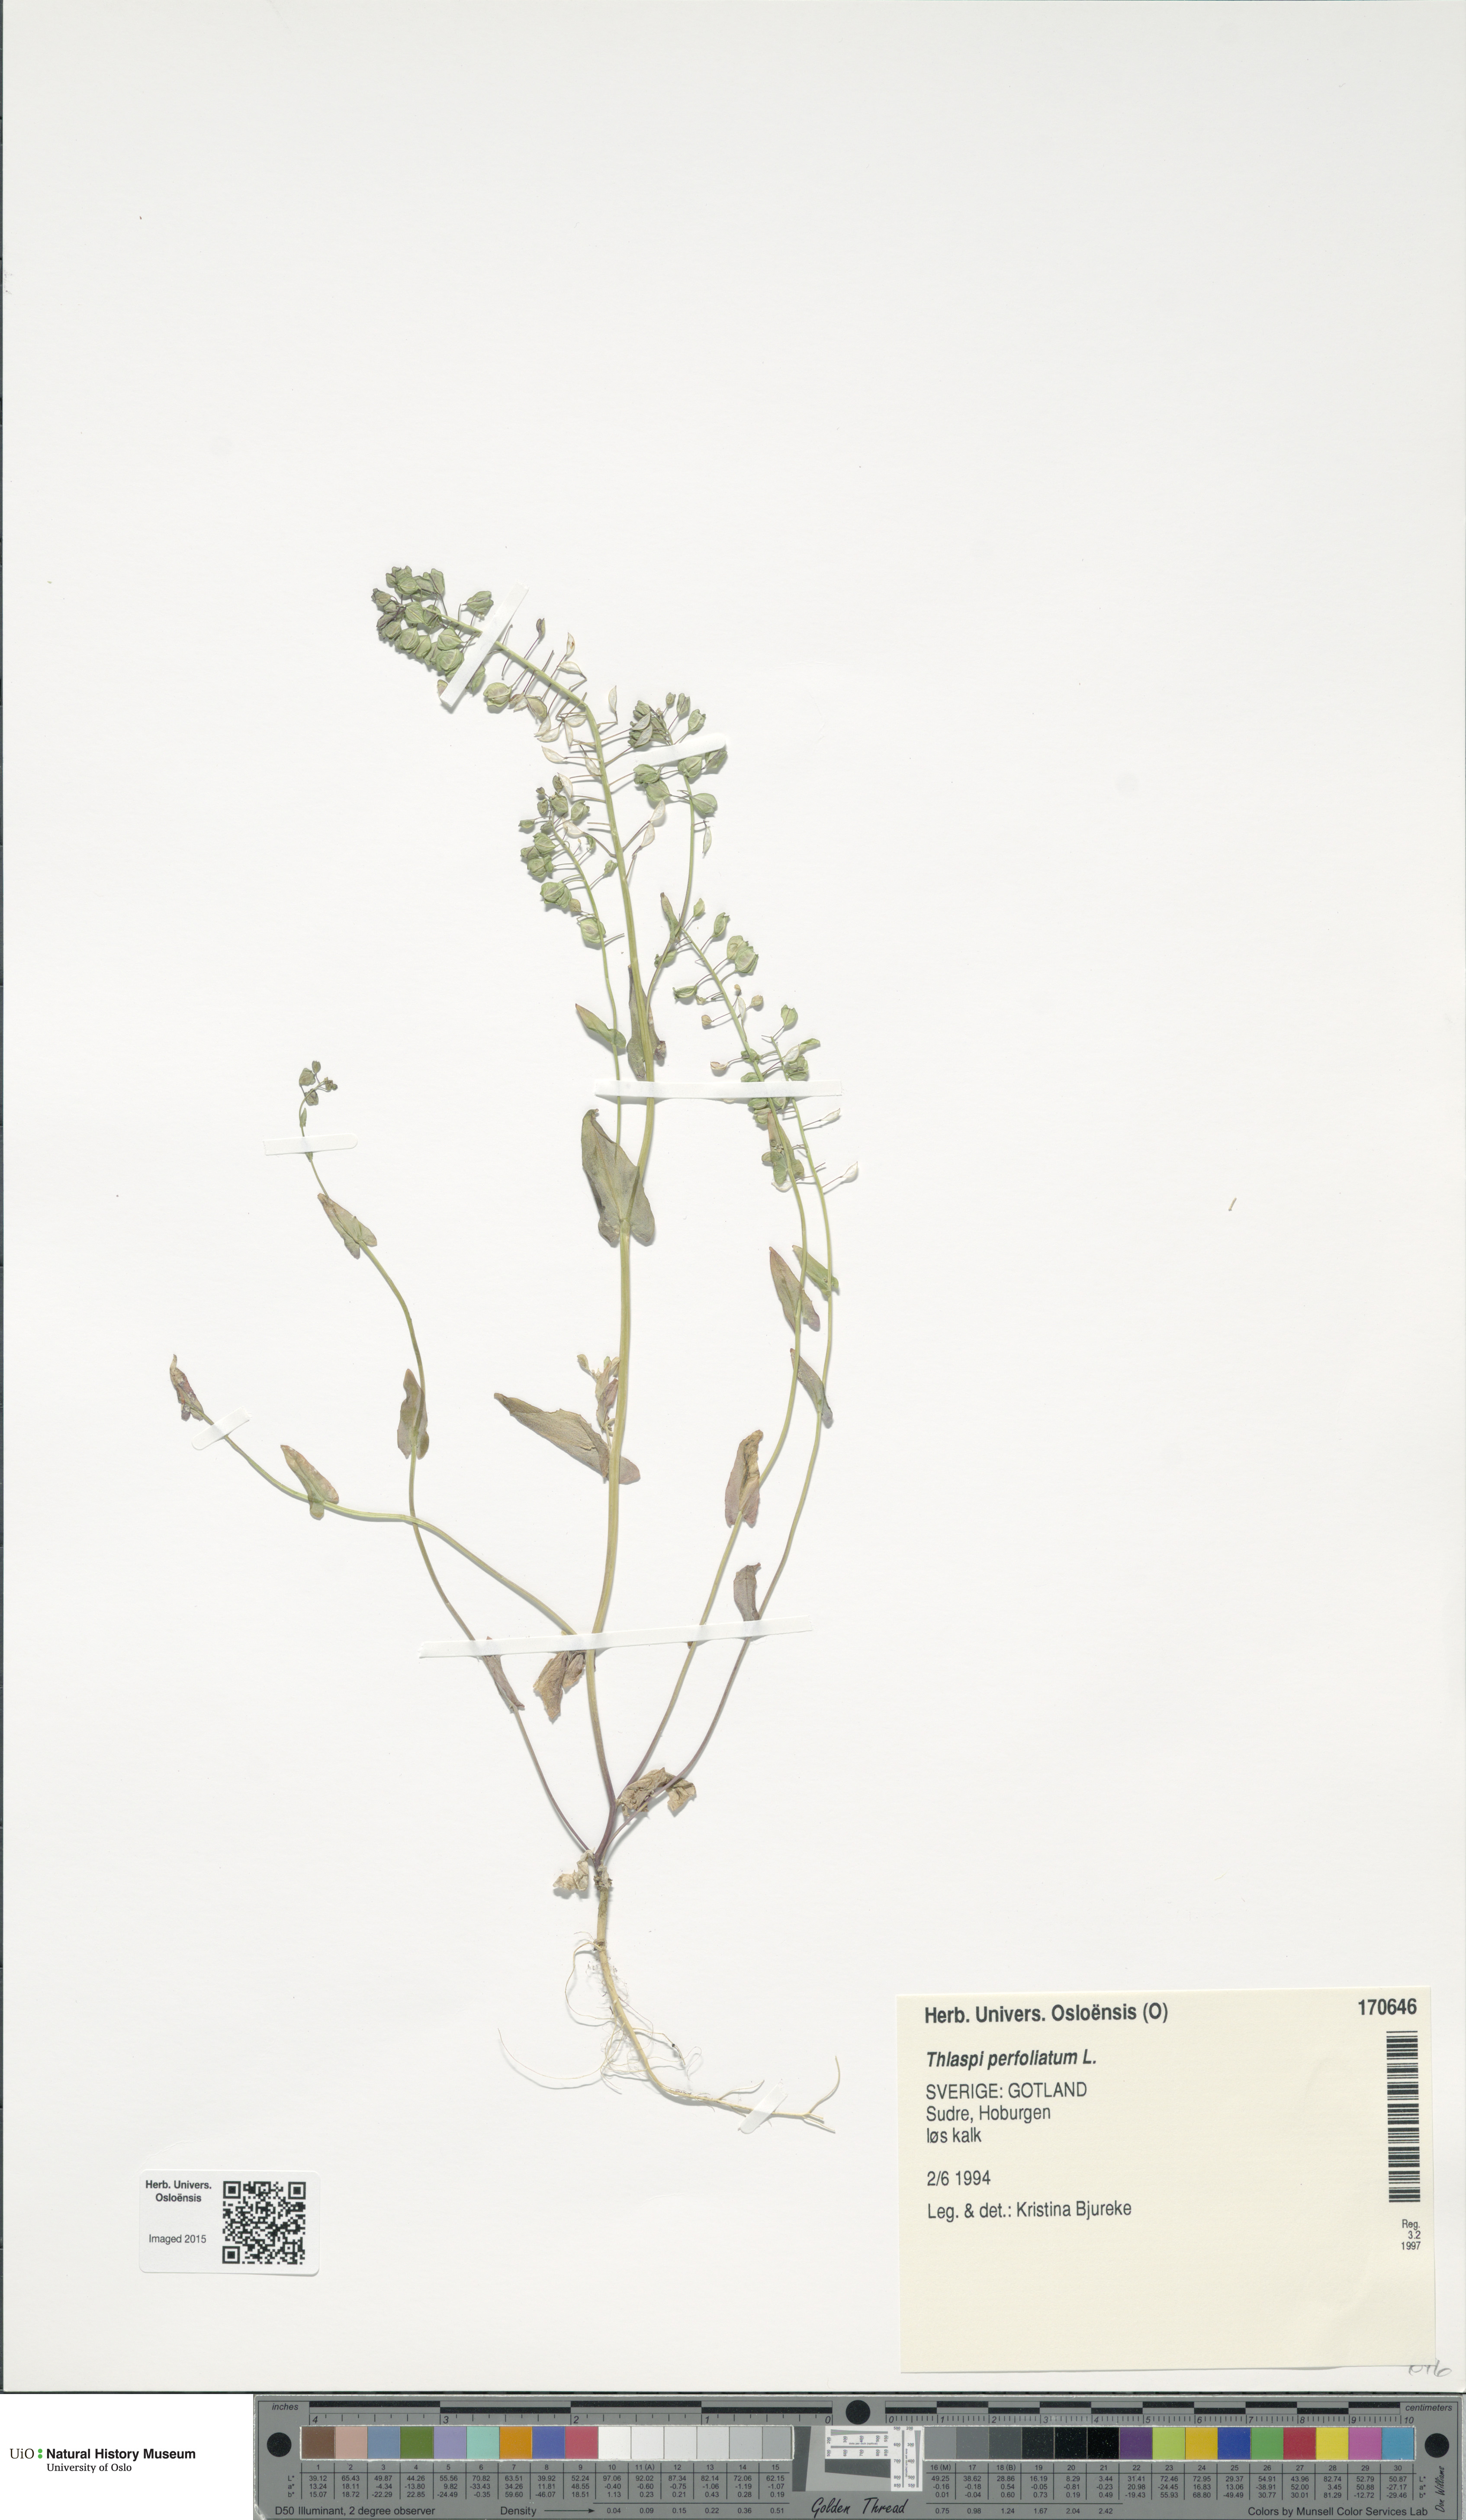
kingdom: Plantae
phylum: Tracheophyta
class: Magnoliopsida
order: Brassicales
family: Brassicaceae
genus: Noccaea
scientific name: Noccaea perfoliata
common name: Perfoliate pennycress
